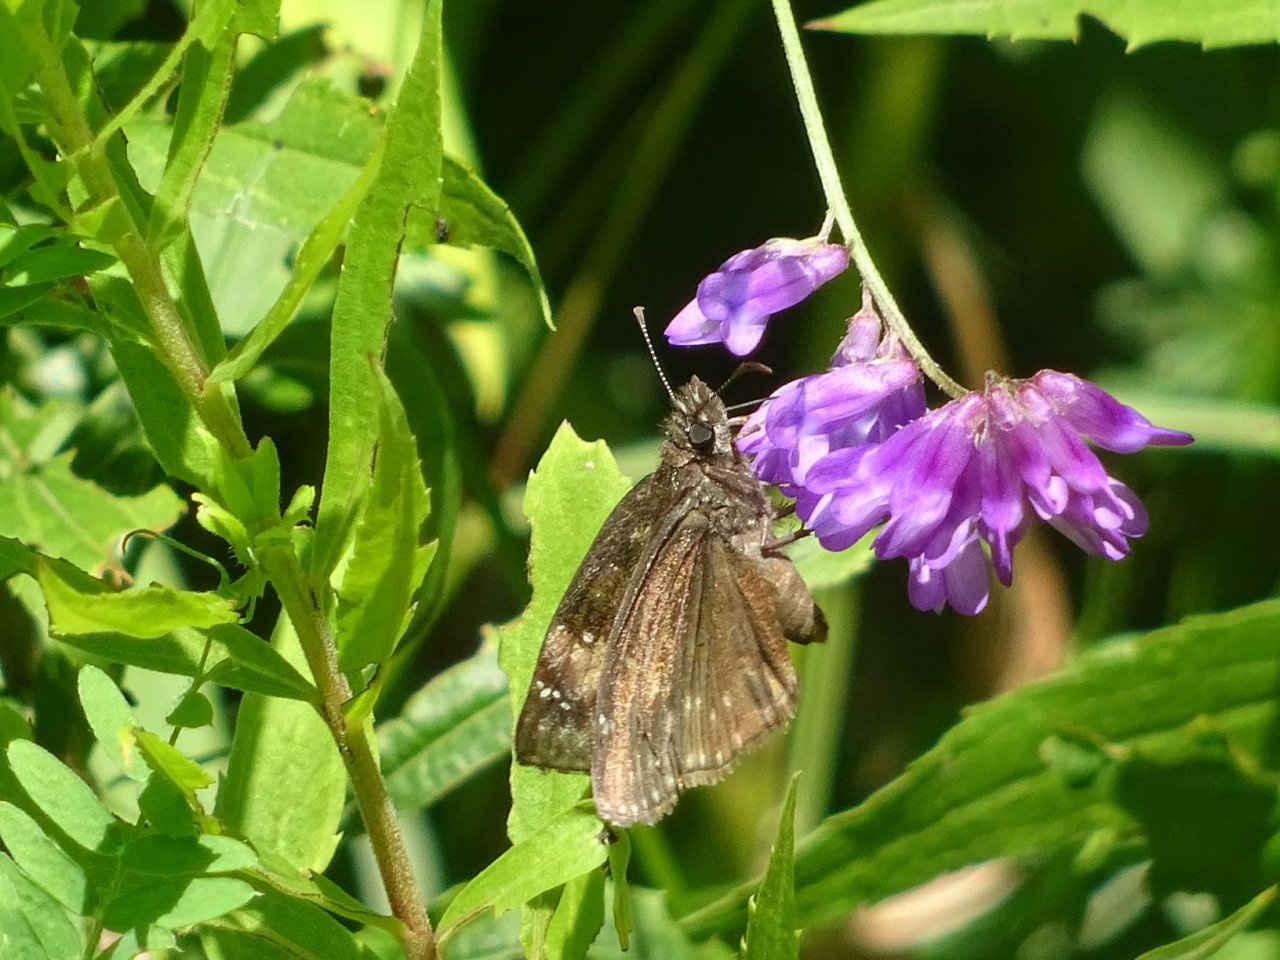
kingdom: Animalia
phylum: Arthropoda
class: Insecta
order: Lepidoptera
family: Hesperiidae
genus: Gesta
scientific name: Gesta
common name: Wild Indigo Duskywing
